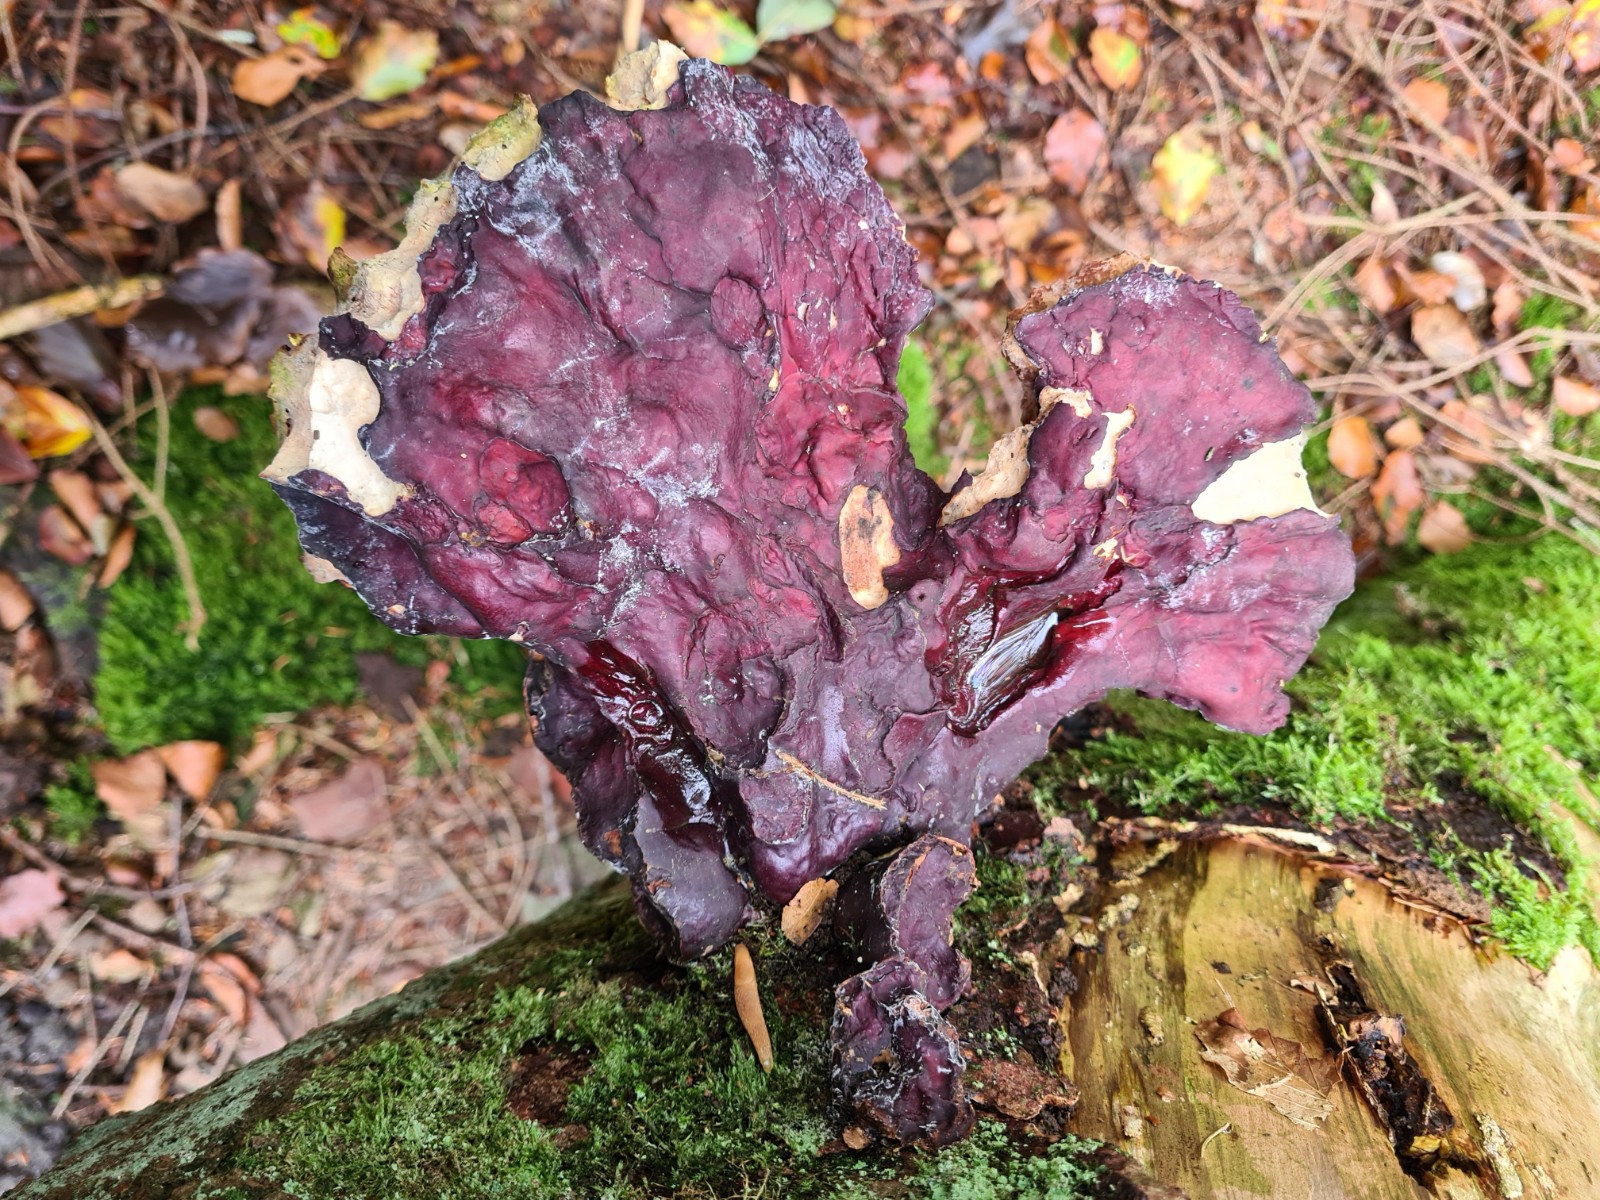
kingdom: Fungi
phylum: Basidiomycota
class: Agaricomycetes
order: Polyporales
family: Polyporaceae
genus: Ganoderma
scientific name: Ganoderma lucidum
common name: skinnende lakporesvamp
